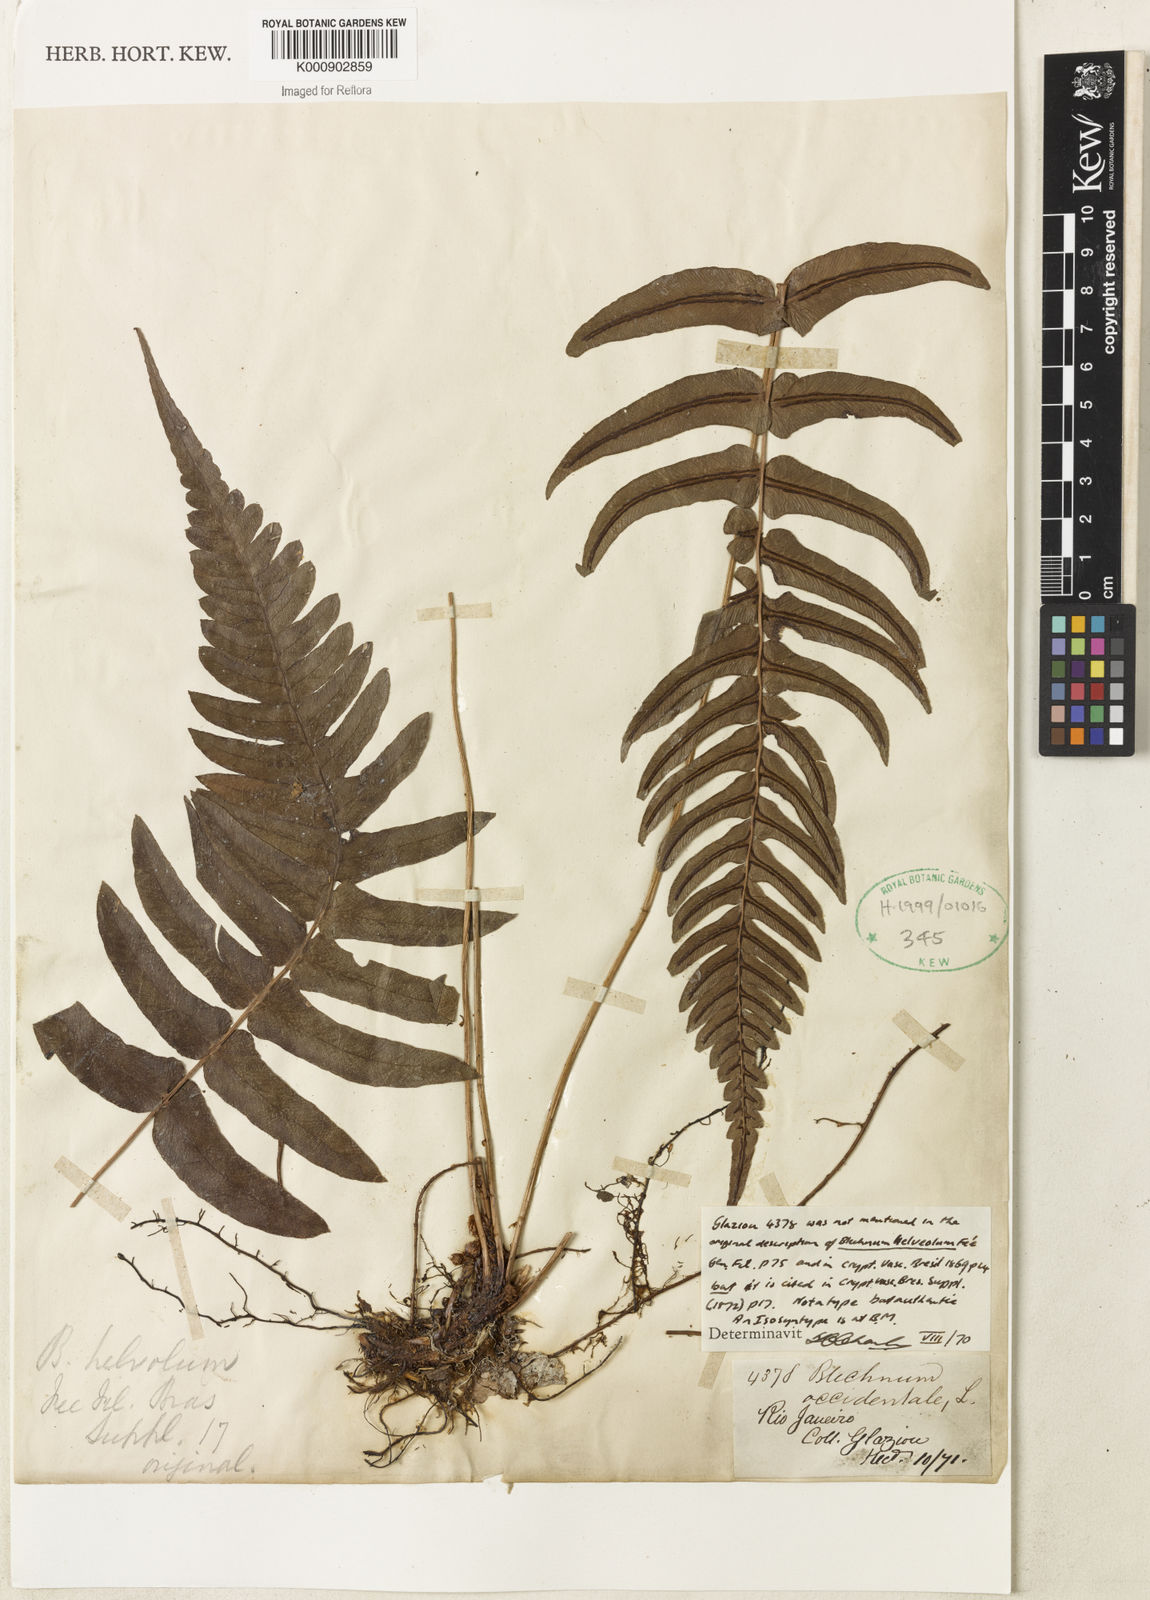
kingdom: Plantae
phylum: Tracheophyta
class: Polypodiopsida
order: Polypodiales
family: Blechnaceae
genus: Blechnum
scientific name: Blechnum occidentale
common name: Hammock fern
